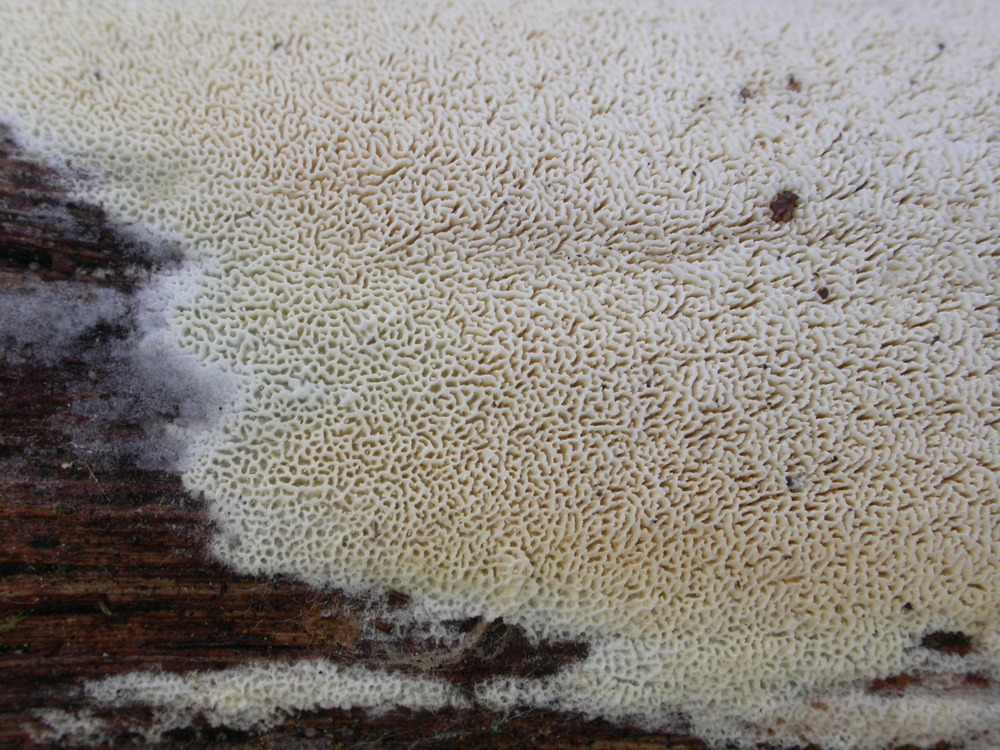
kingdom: Fungi
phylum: Basidiomycota
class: Agaricomycetes
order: Hymenochaetales
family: Schizoporaceae
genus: Xylodon
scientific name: Xylodon subtropicus
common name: labyrint-tandsvamp
